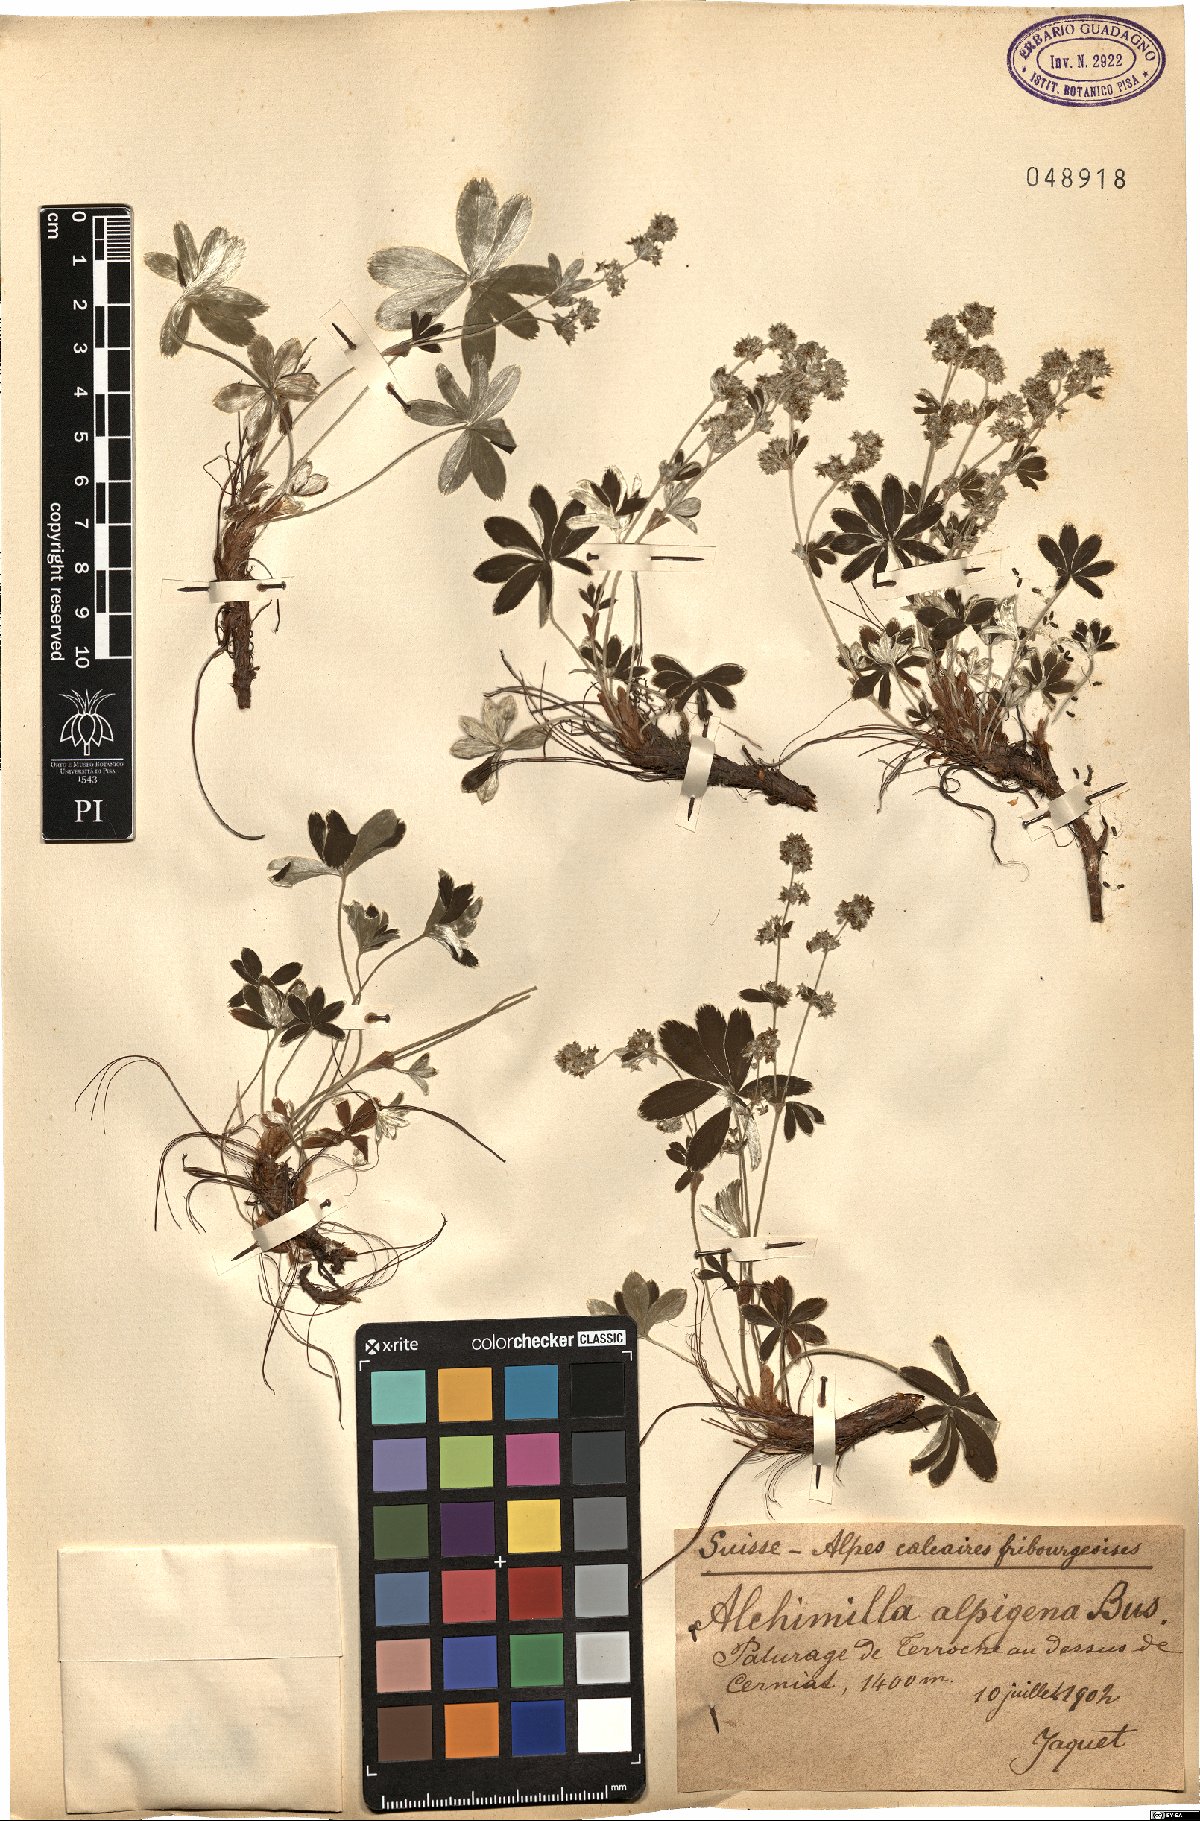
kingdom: Plantae
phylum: Tracheophyta
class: Magnoliopsida
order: Rosales
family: Rosaceae
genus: Alchemilla
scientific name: Alchemilla alpigena
